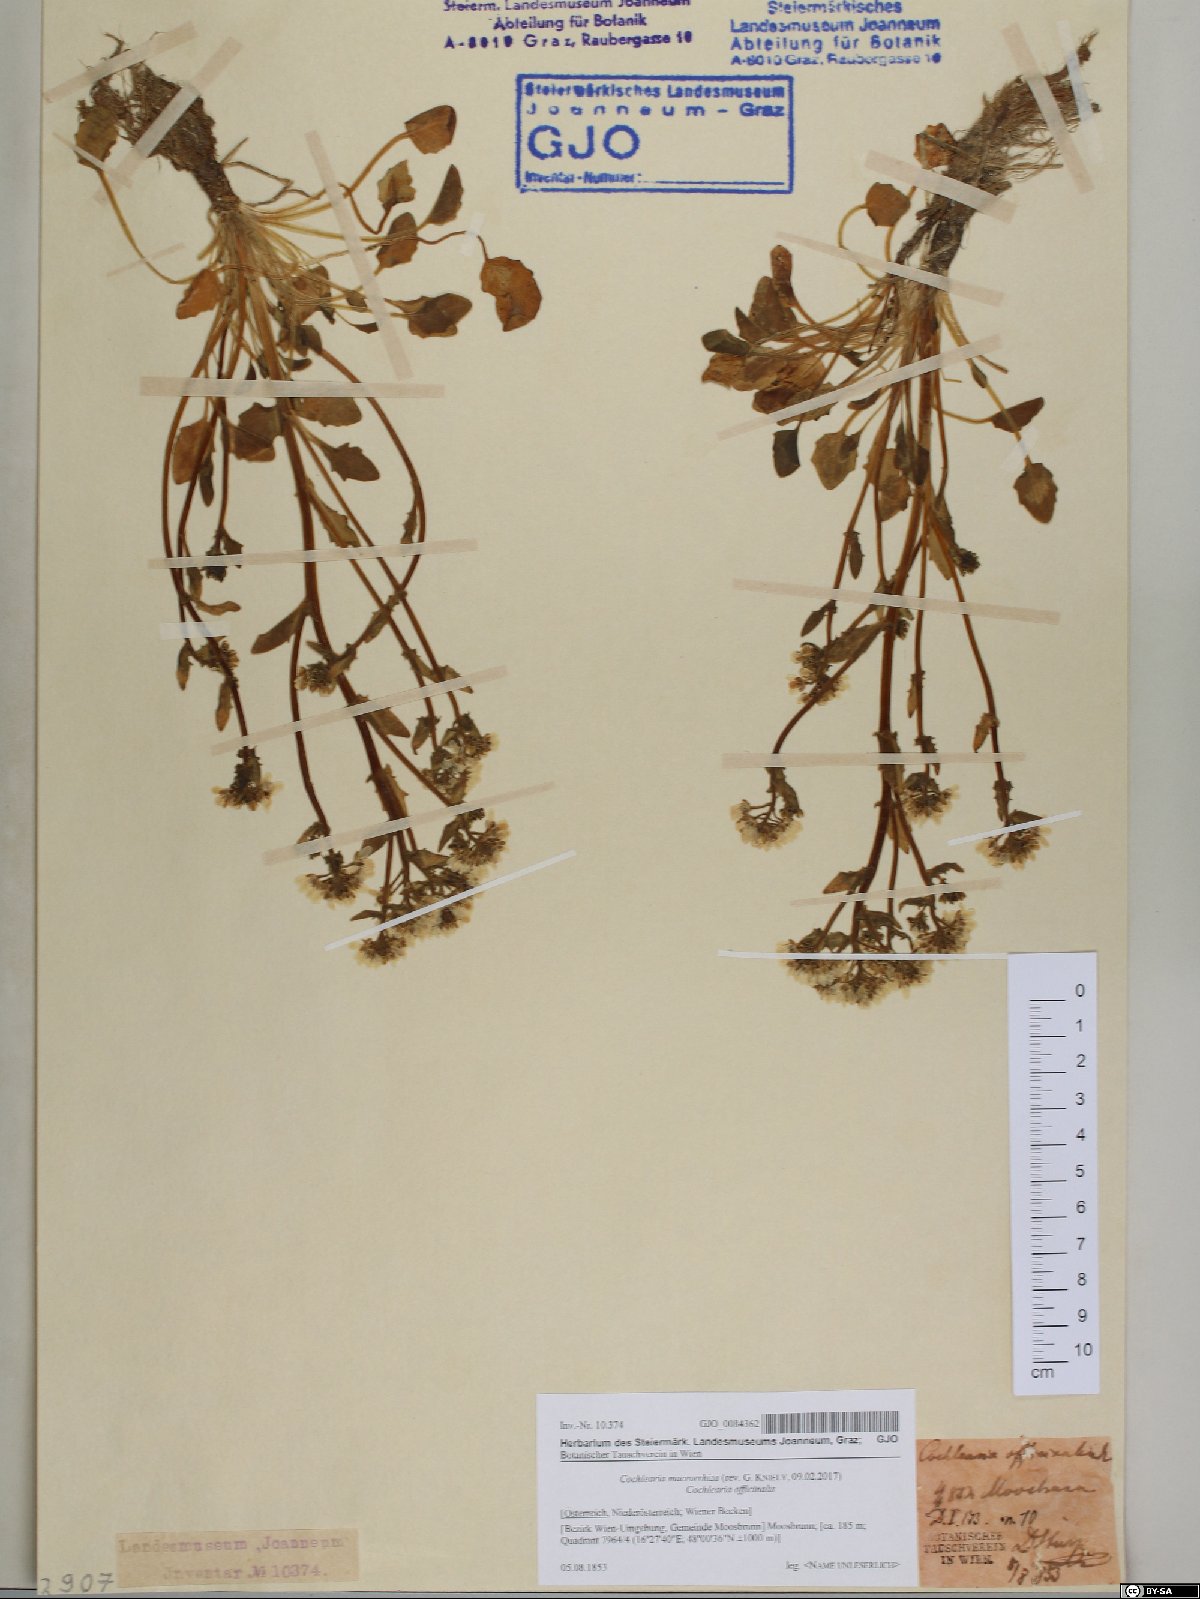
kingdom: Plantae
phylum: Tracheophyta
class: Magnoliopsida
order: Brassicales
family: Brassicaceae
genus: Cochlearia
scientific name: Cochlearia pyrenaica
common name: Upland scurvy-grass
